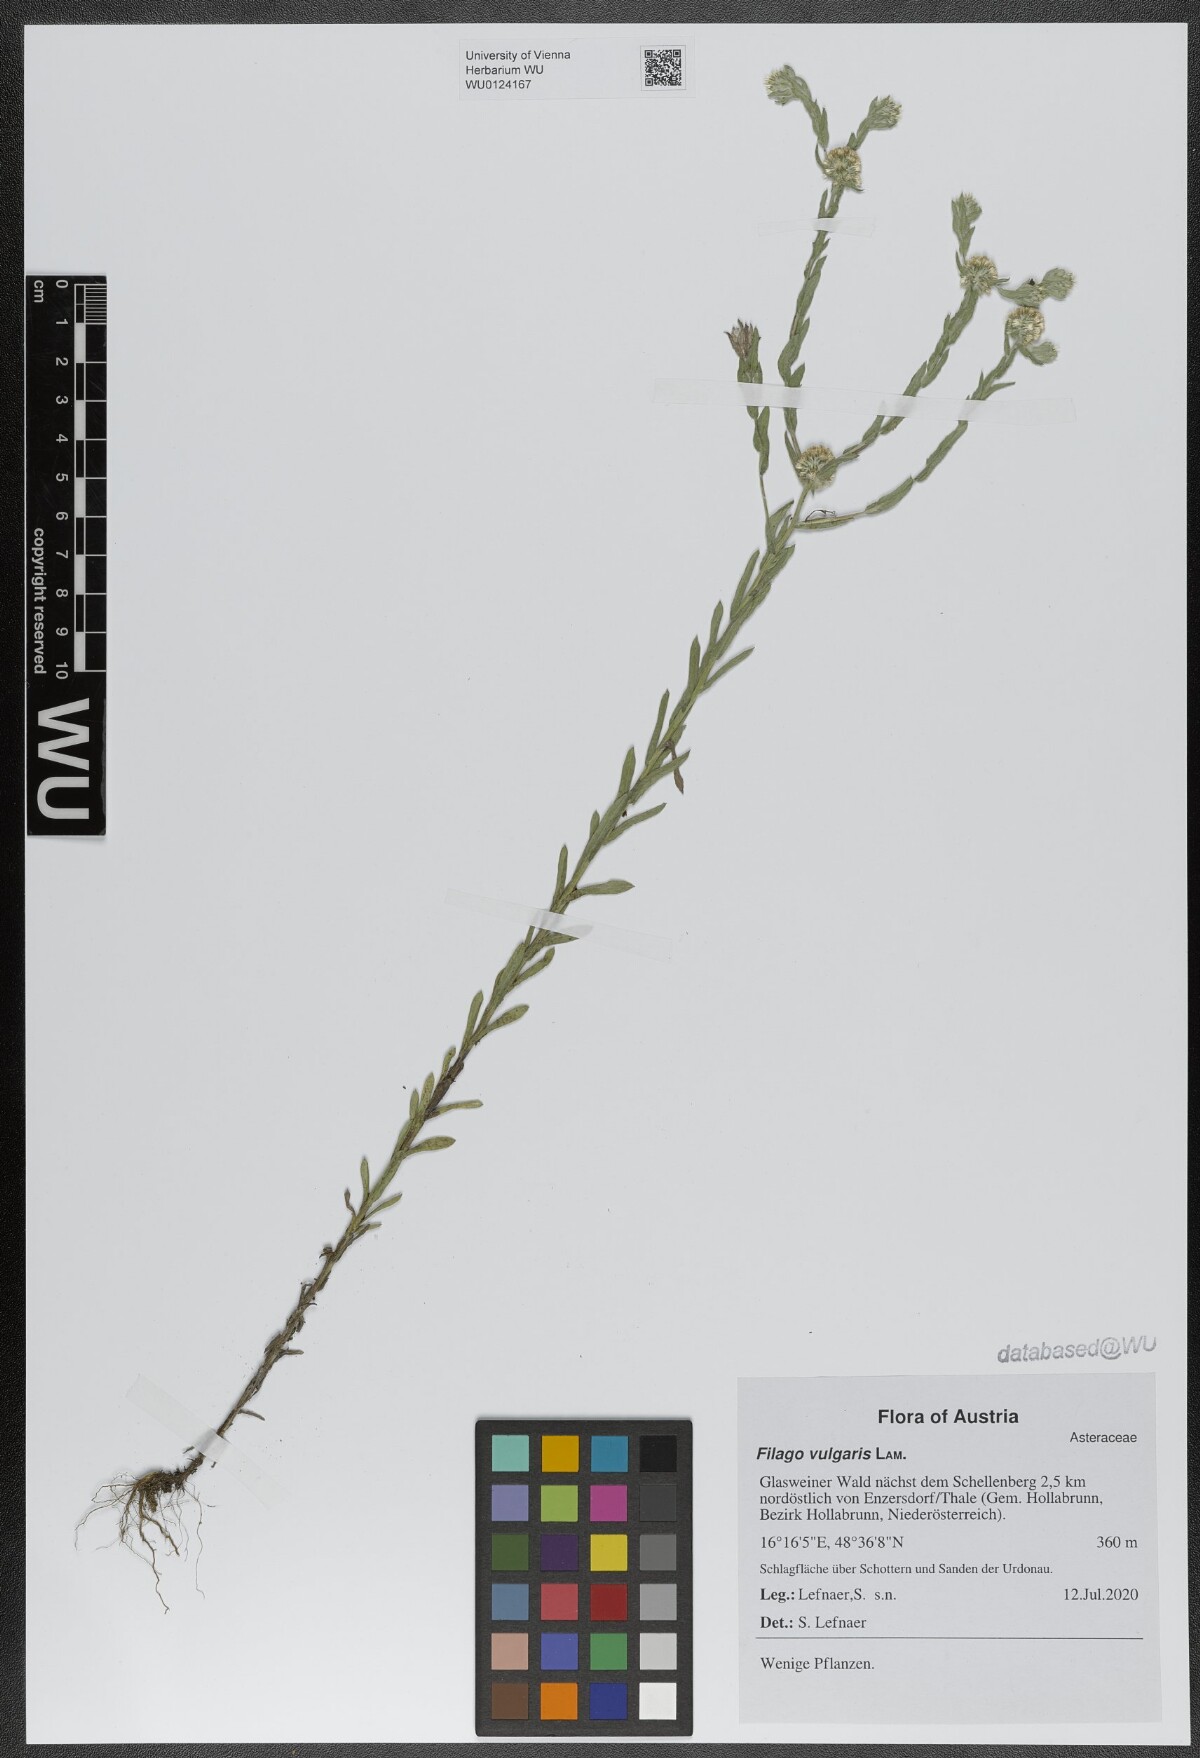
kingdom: Plantae
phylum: Tracheophyta
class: Magnoliopsida
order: Asterales
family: Asteraceae
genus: Filago
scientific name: Filago germanica
